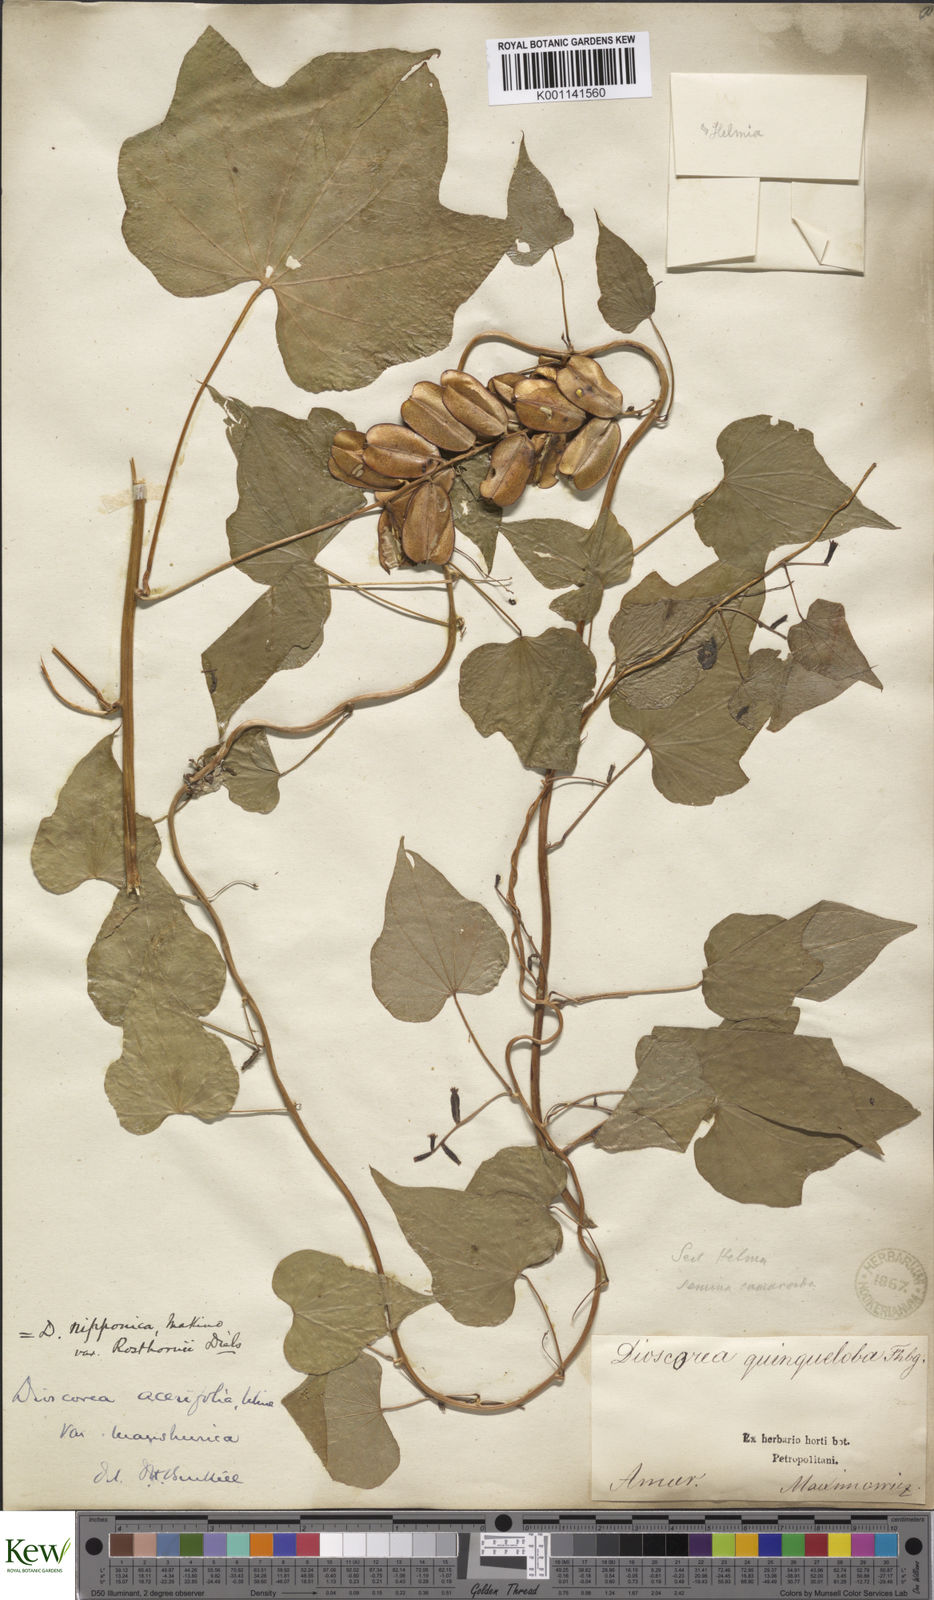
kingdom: Plantae
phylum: Tracheophyta
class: Liliopsida
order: Dioscoreales
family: Dioscoreaceae
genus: Dioscorea
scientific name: Dioscorea nipponica
